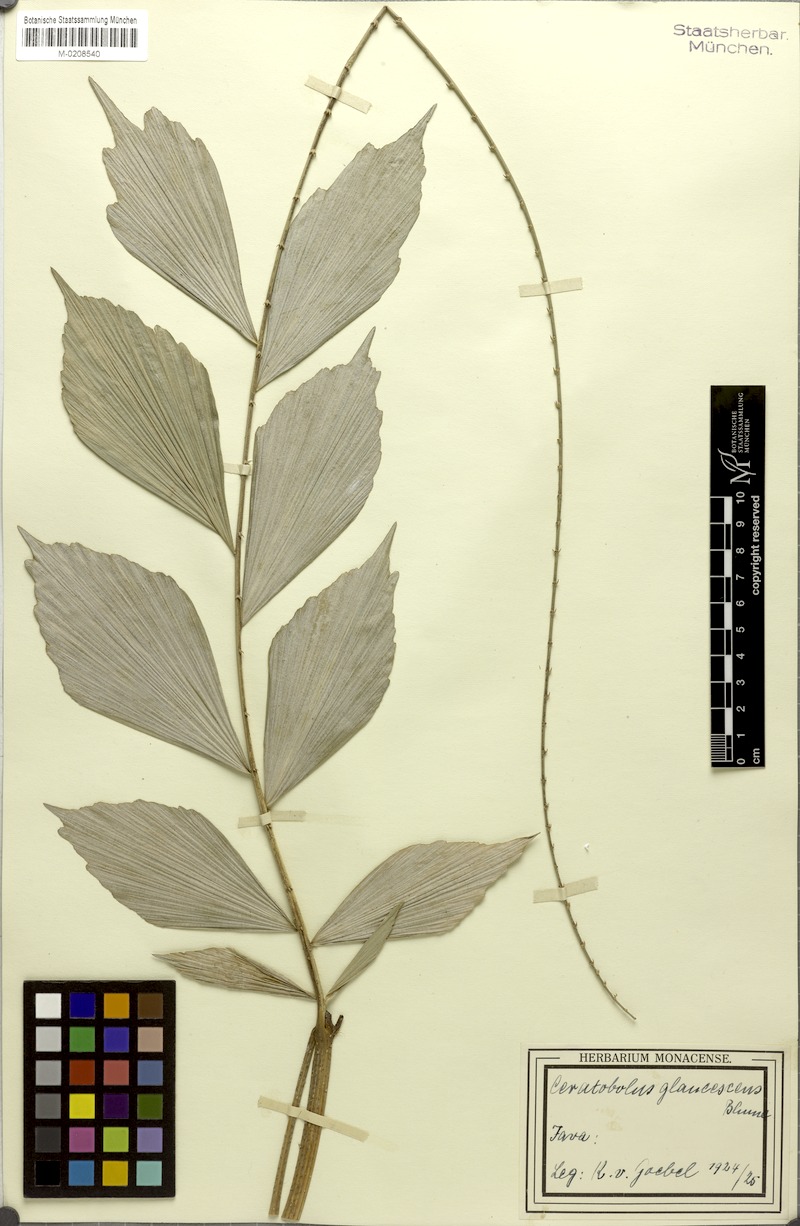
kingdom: Plantae
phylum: Tracheophyta
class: Liliopsida
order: Arecales
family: Arecaceae
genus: Calamus
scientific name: Calamus glaucescens
